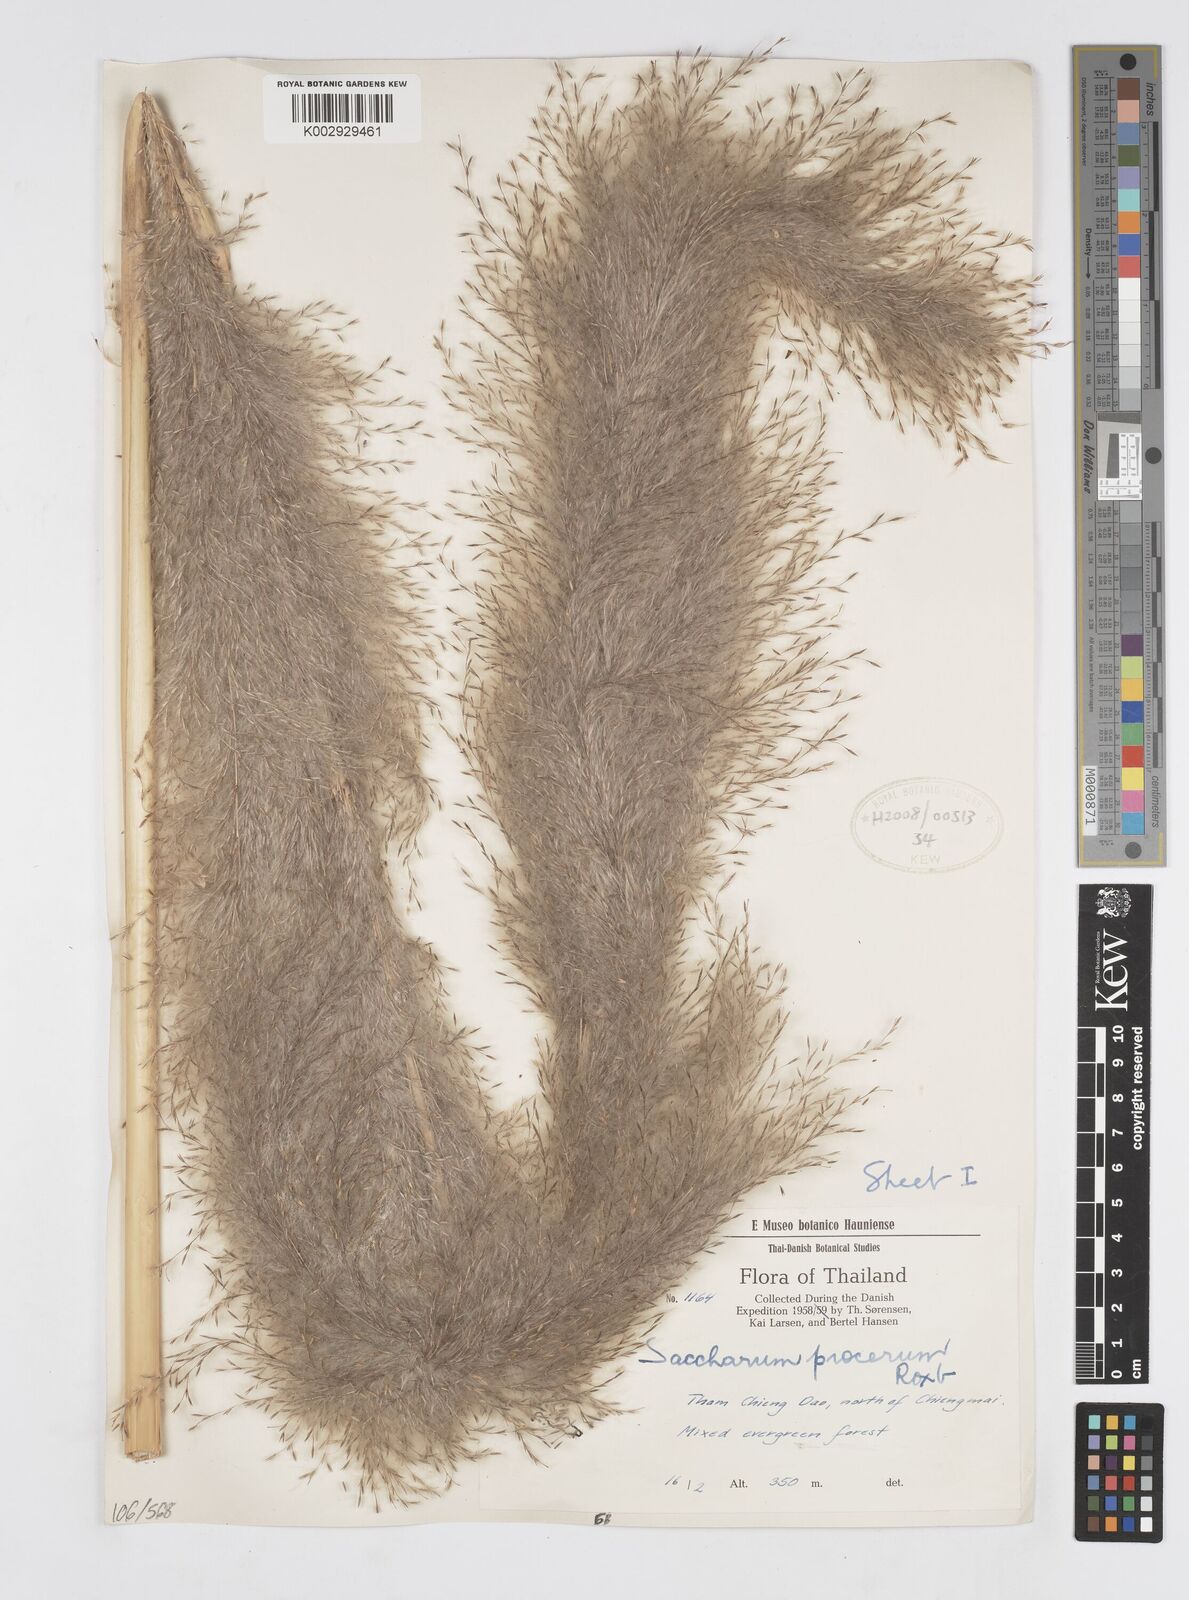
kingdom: Plantae
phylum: Tracheophyta
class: Liliopsida
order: Poales
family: Poaceae
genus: Saccharum
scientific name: Saccharum spontaneum
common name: Wild sugarcane
